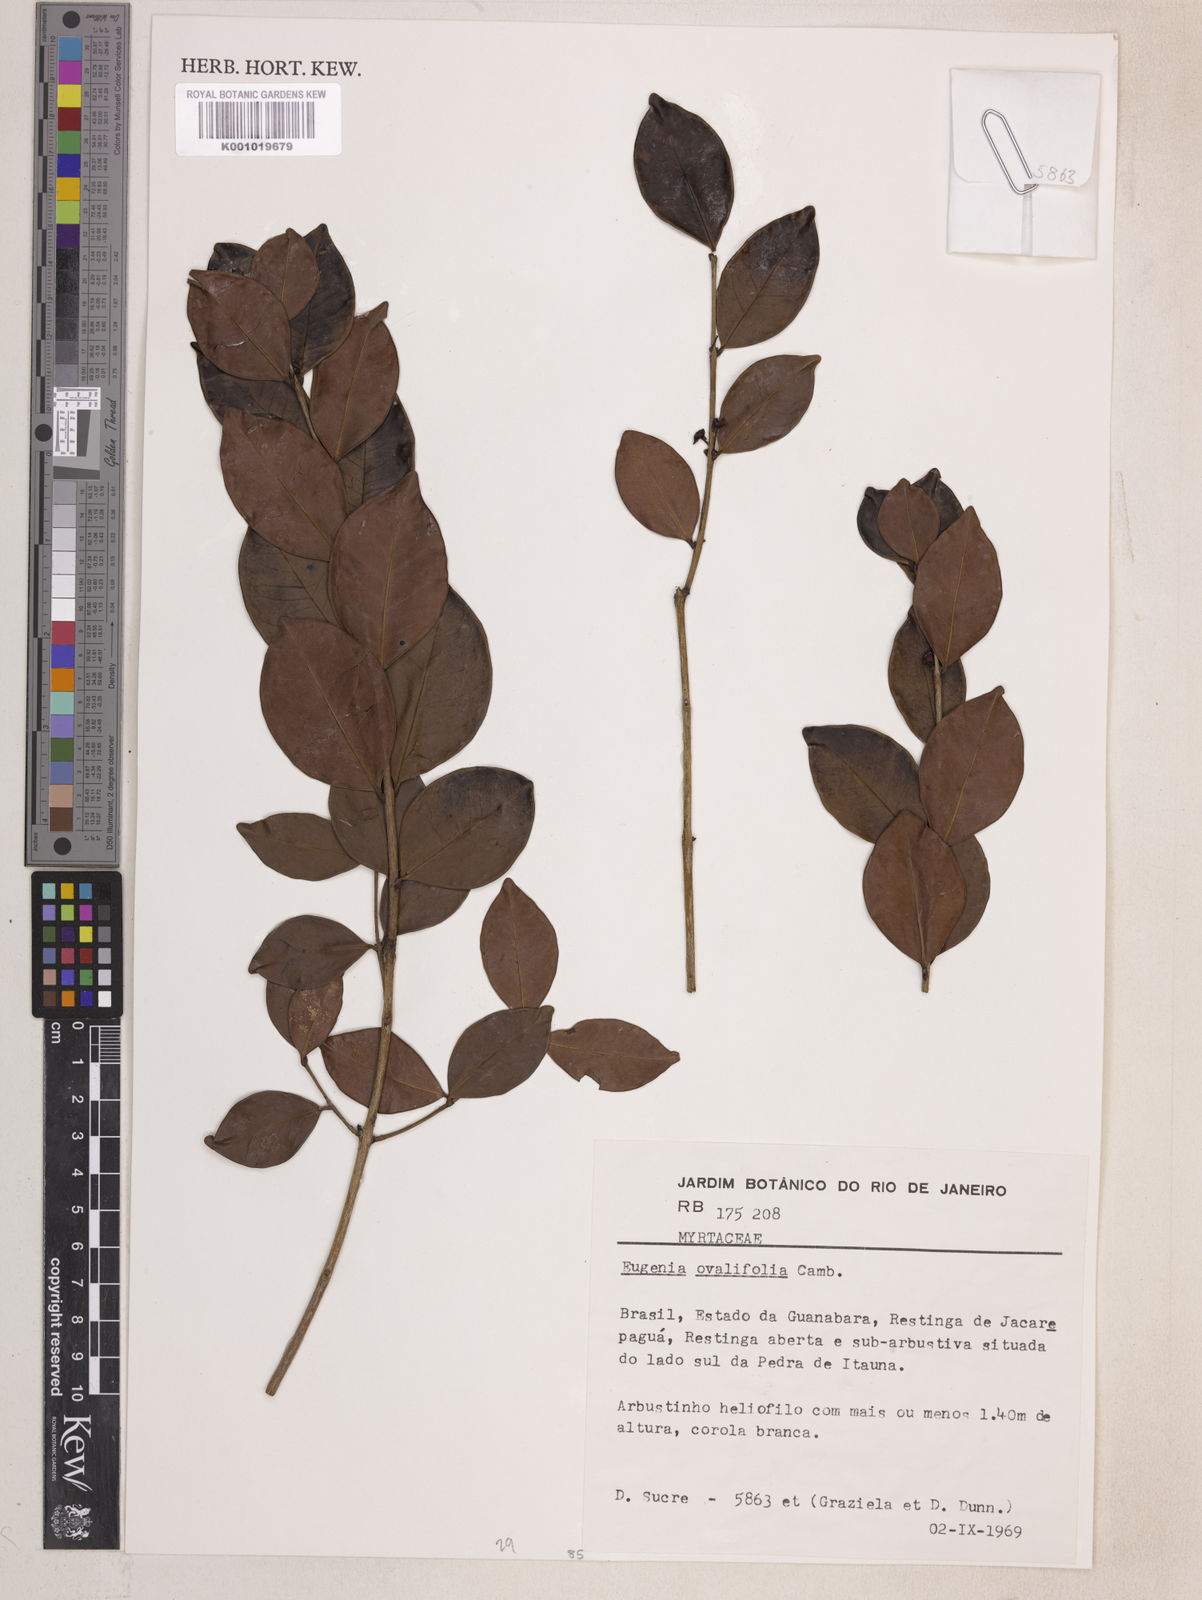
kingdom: Plantae
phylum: Tracheophyta
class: Magnoliopsida
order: Myrtales
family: Myrtaceae
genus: Eugenia
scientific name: Eugenia punicifolia
